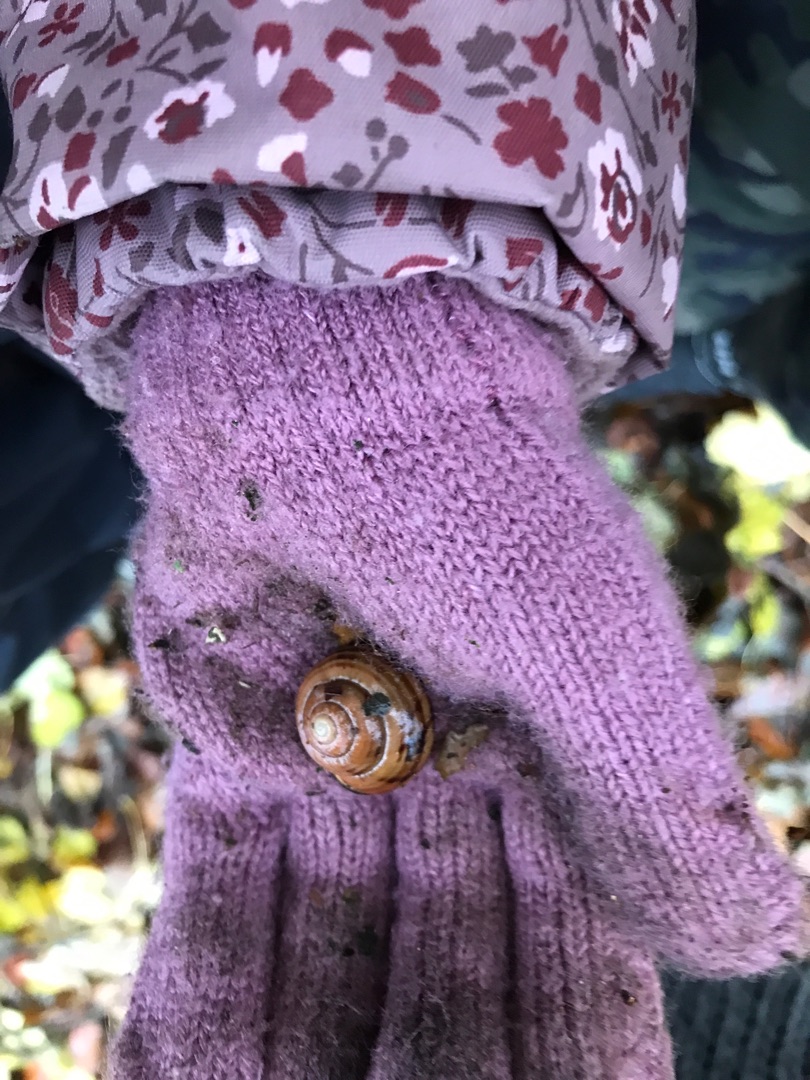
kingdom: Animalia
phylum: Mollusca
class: Gastropoda
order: Stylommatophora
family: Helicidae
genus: Cepaea
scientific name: Cepaea nemoralis
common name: Lundsnegl
